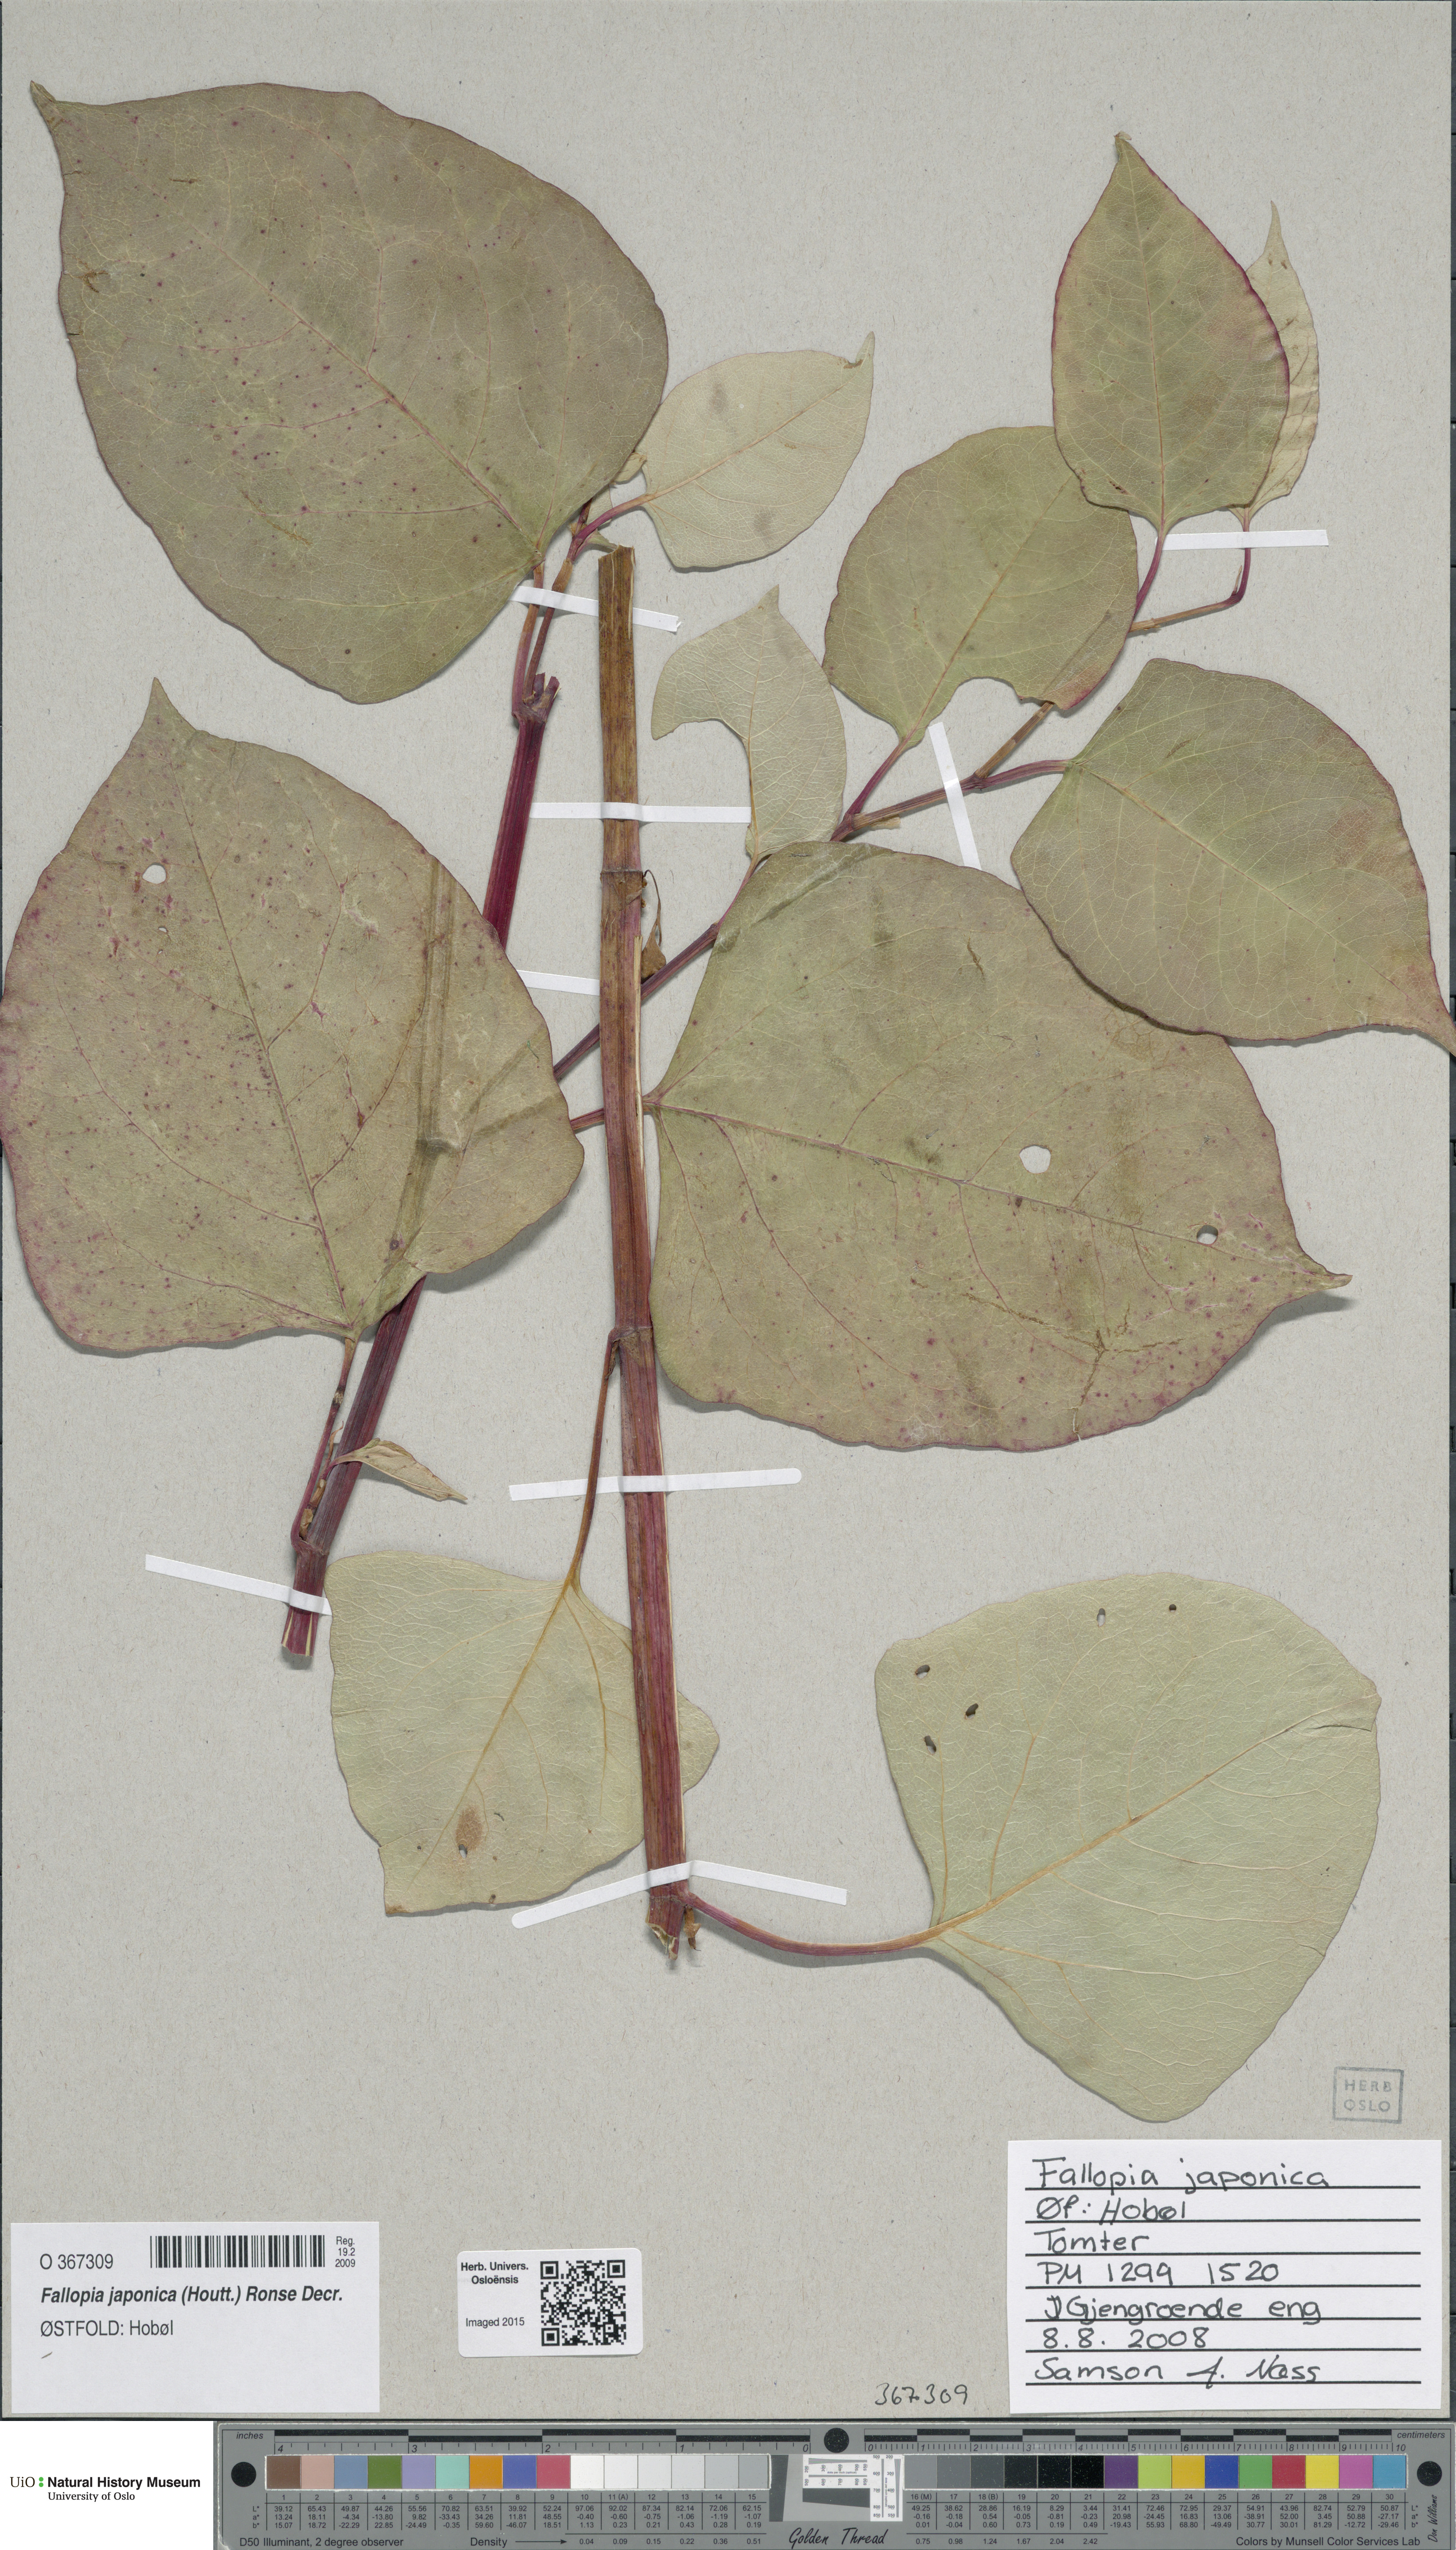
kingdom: Plantae
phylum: Tracheophyta
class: Magnoliopsida
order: Caryophyllales
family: Polygonaceae
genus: Reynoutria
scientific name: Reynoutria japonica
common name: Japanese knotweed
